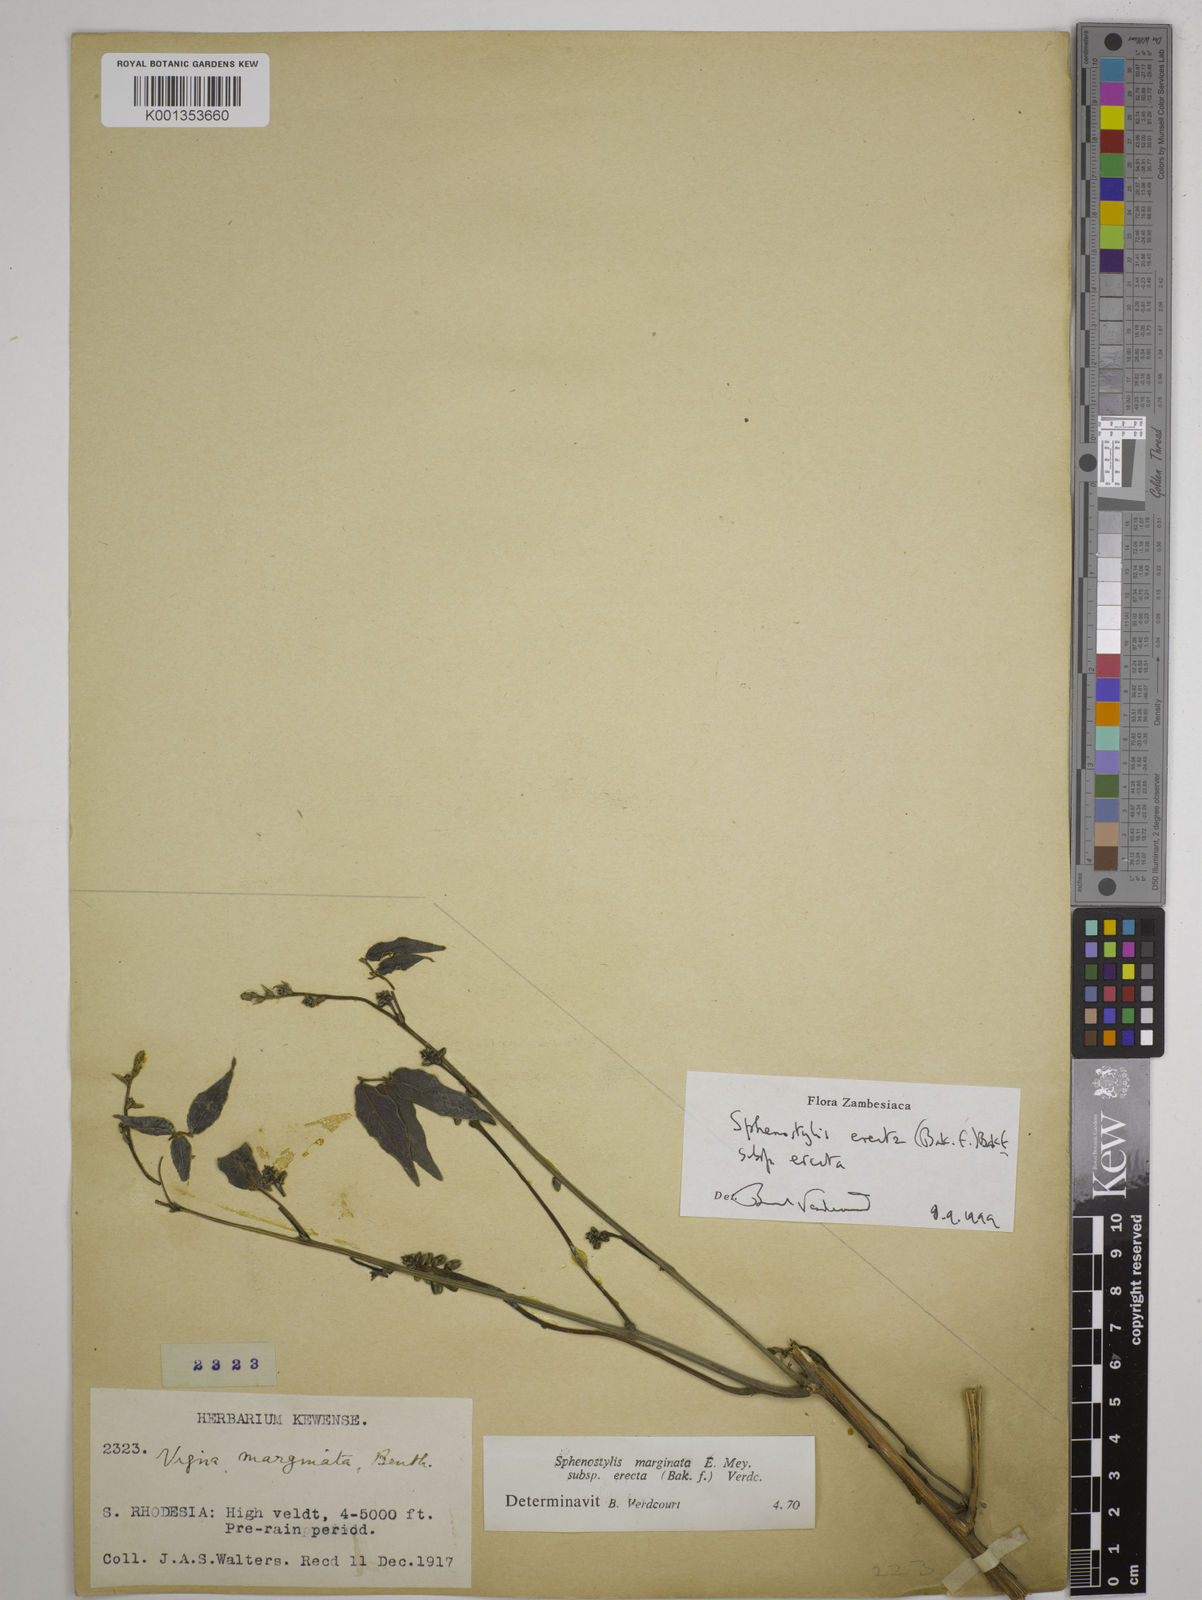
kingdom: Plantae
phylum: Tracheophyta
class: Magnoliopsida
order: Fabales
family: Fabaceae
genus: Sphenostylis
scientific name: Sphenostylis erecta
